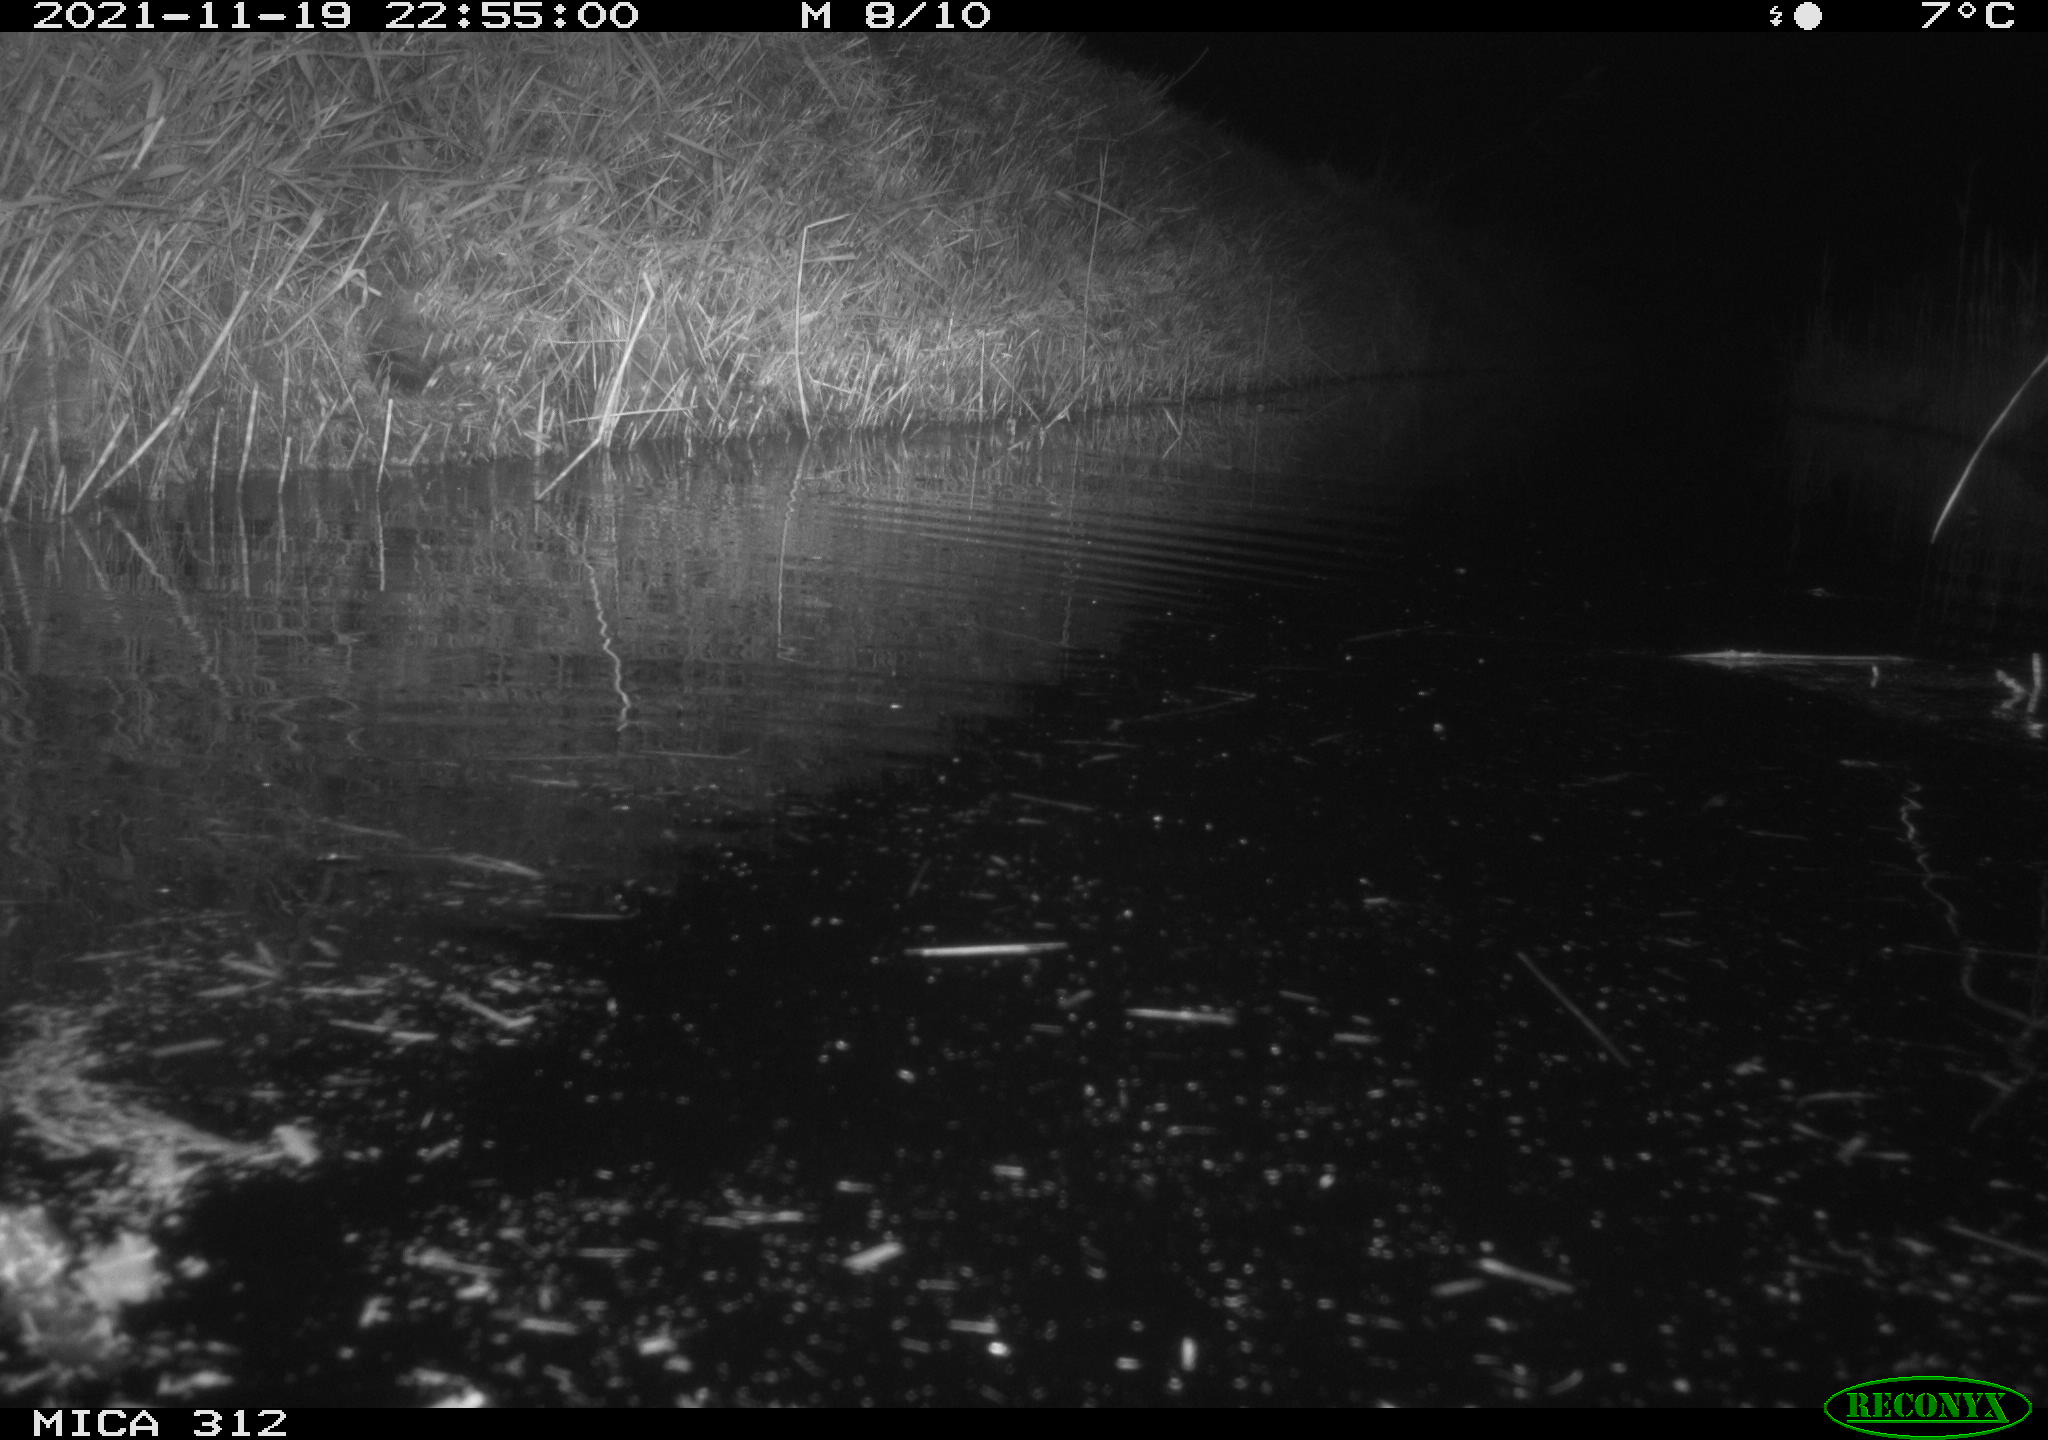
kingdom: Animalia
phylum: Chordata
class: Mammalia
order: Rodentia
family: Muridae
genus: Rattus
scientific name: Rattus norvegicus
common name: Brown rat
